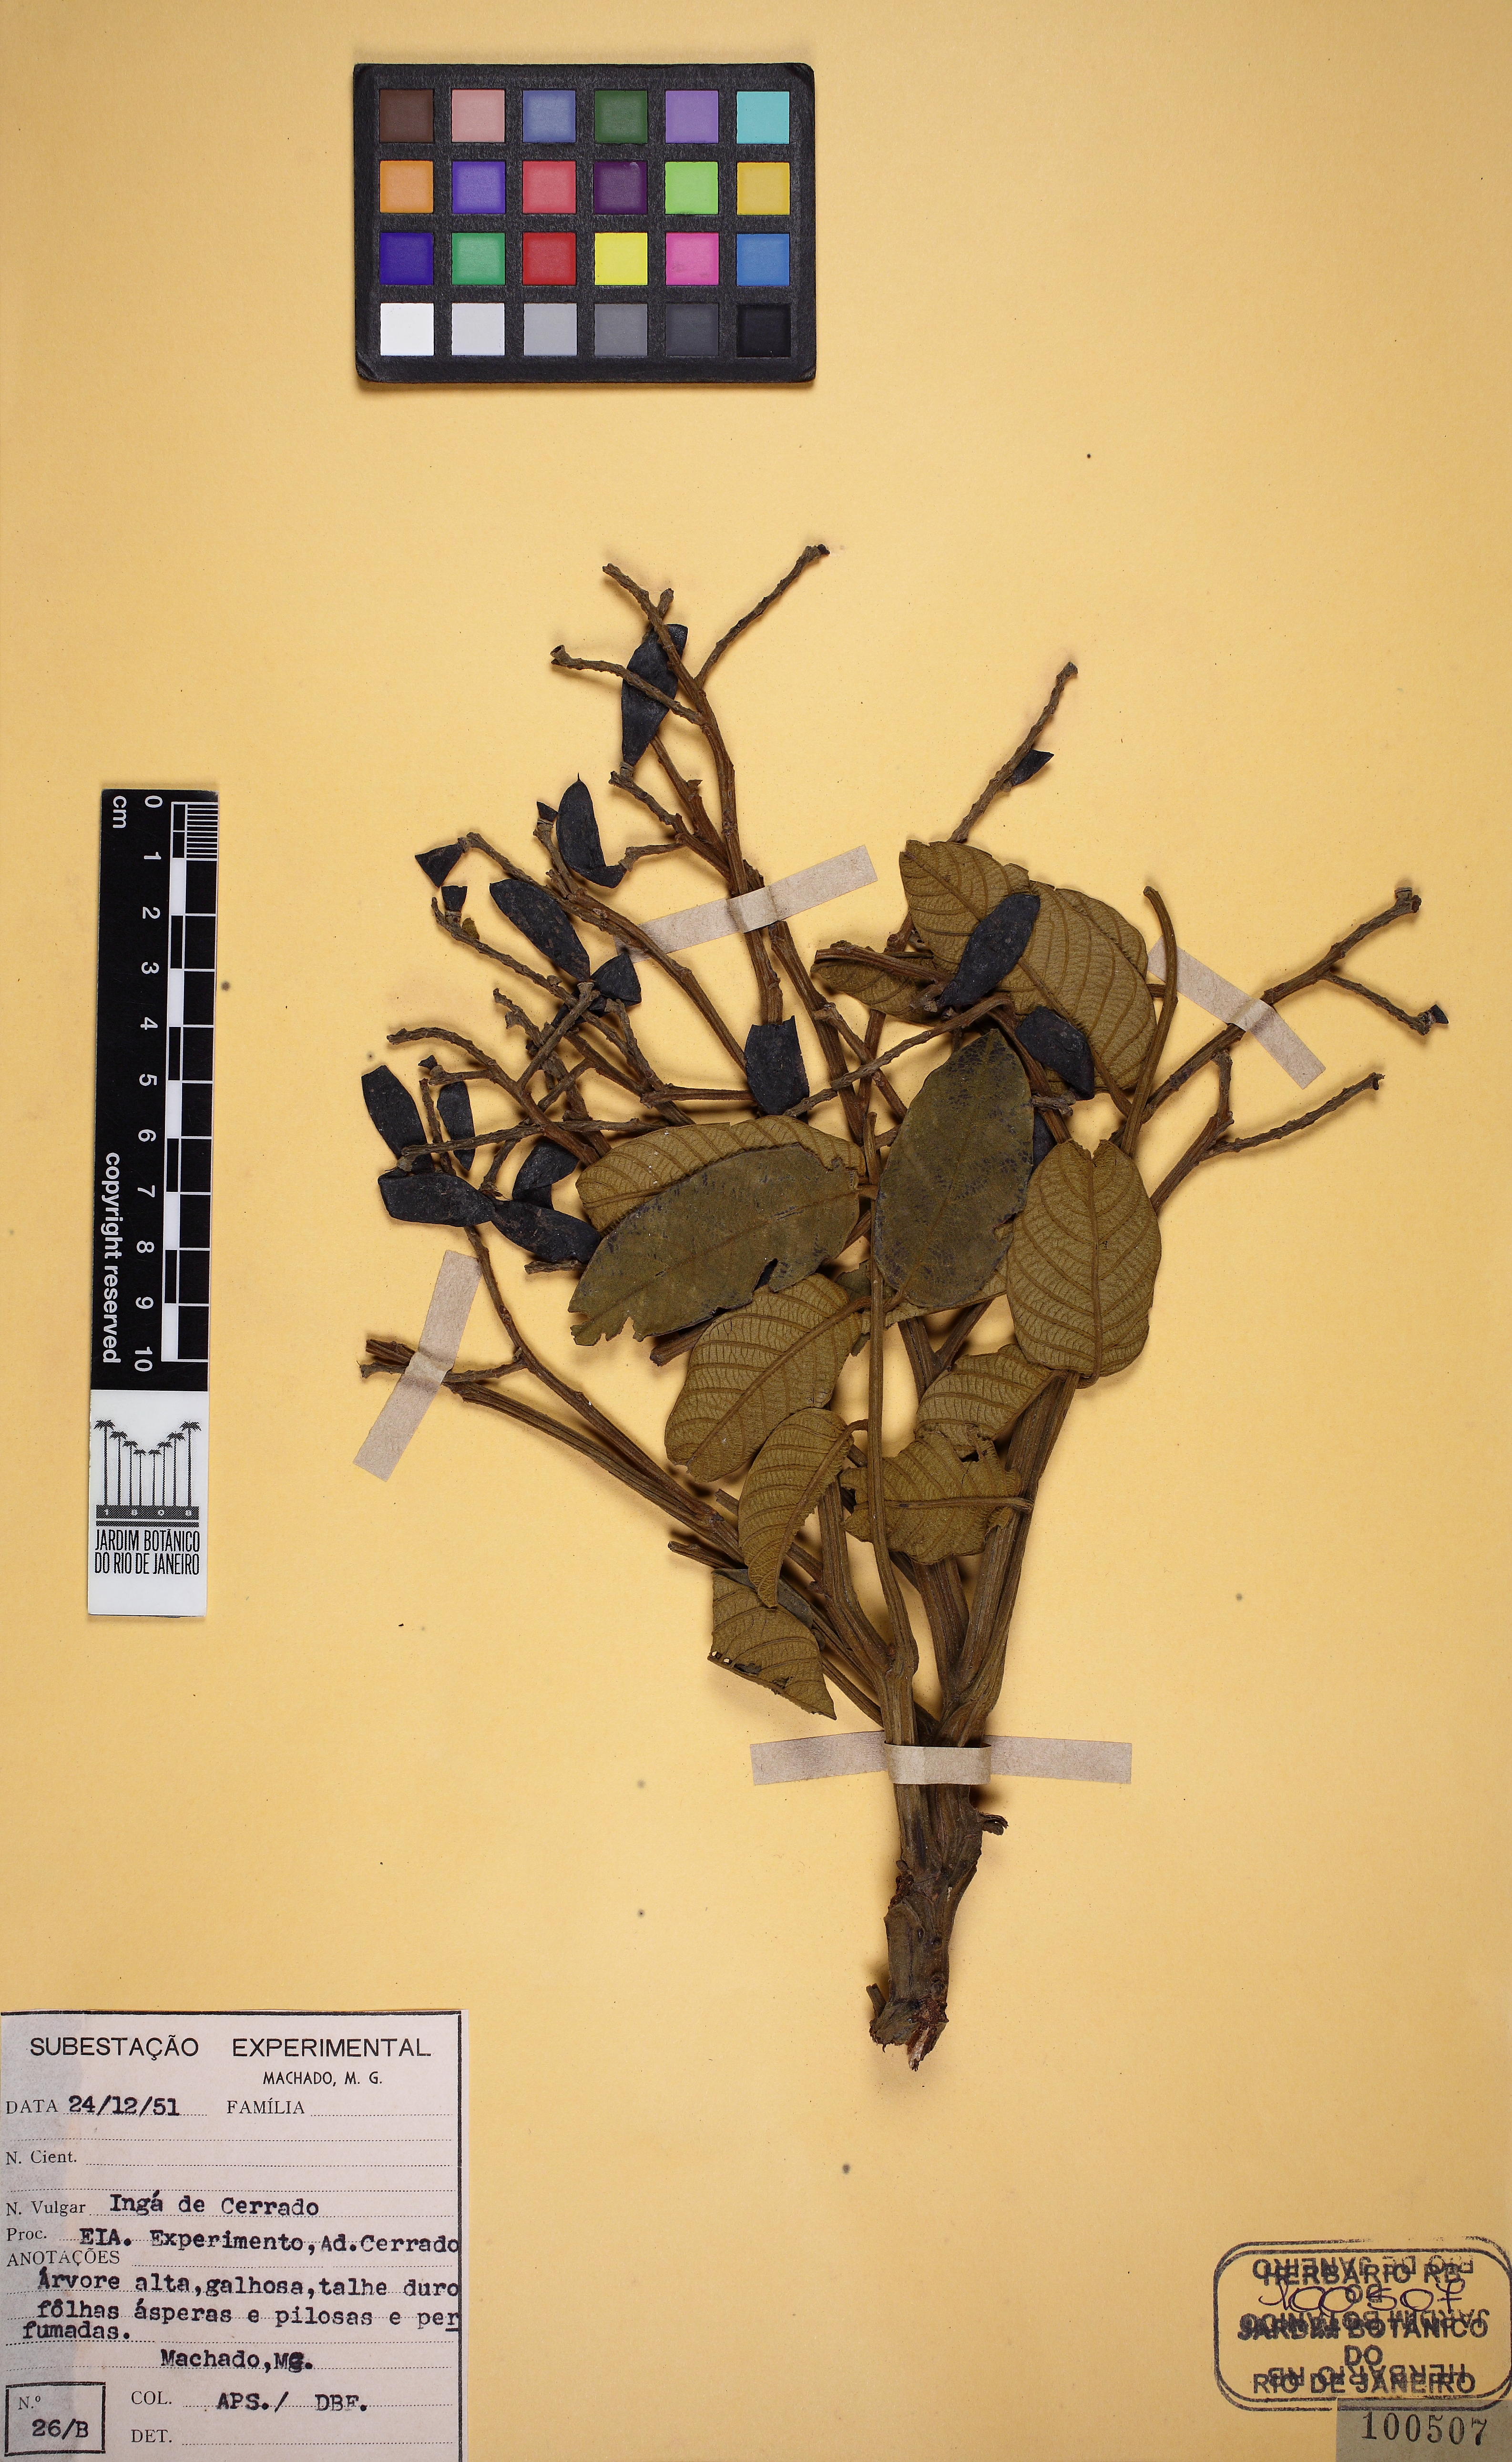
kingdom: Plantae
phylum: Tracheophyta
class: Magnoliopsida
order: Fabales
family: Fabaceae
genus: Tachigali
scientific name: Tachigali rugosa
